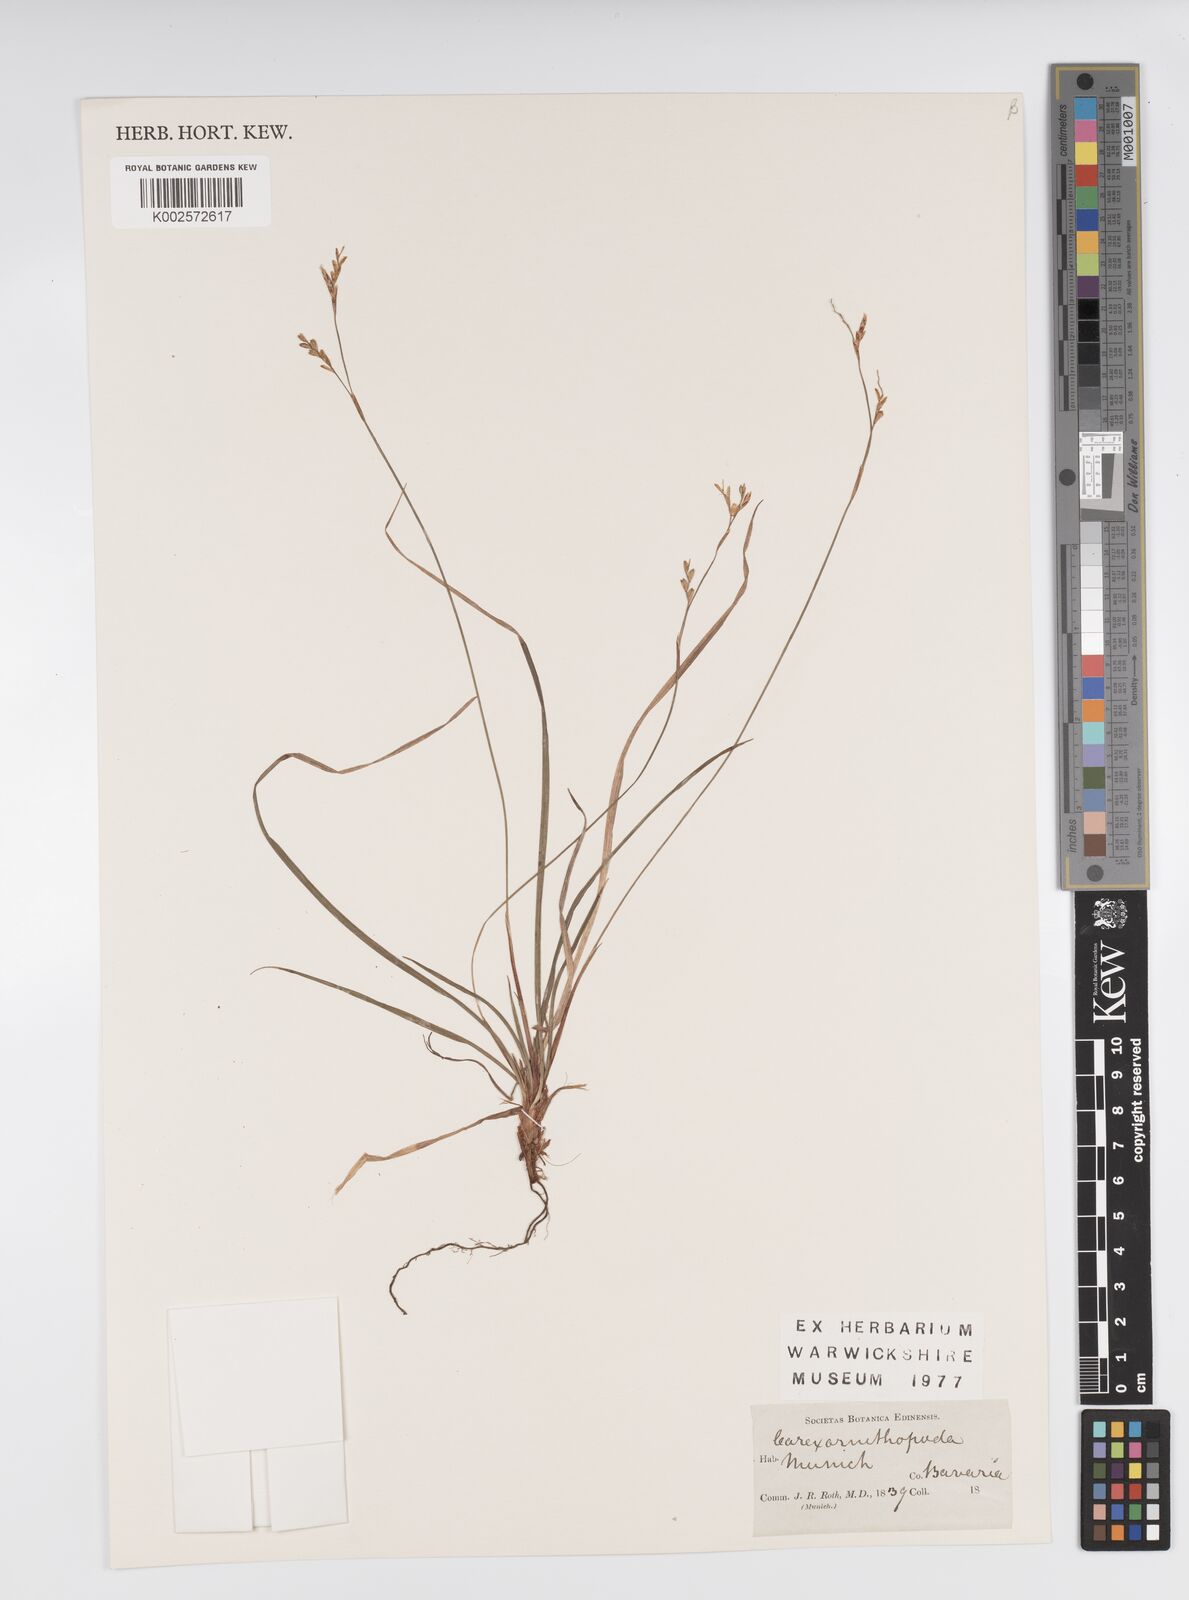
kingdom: Plantae
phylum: Tracheophyta
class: Liliopsida
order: Poales
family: Cyperaceae
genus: Carex
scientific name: Carex ornithopoda
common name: Bird's-foot sedge
